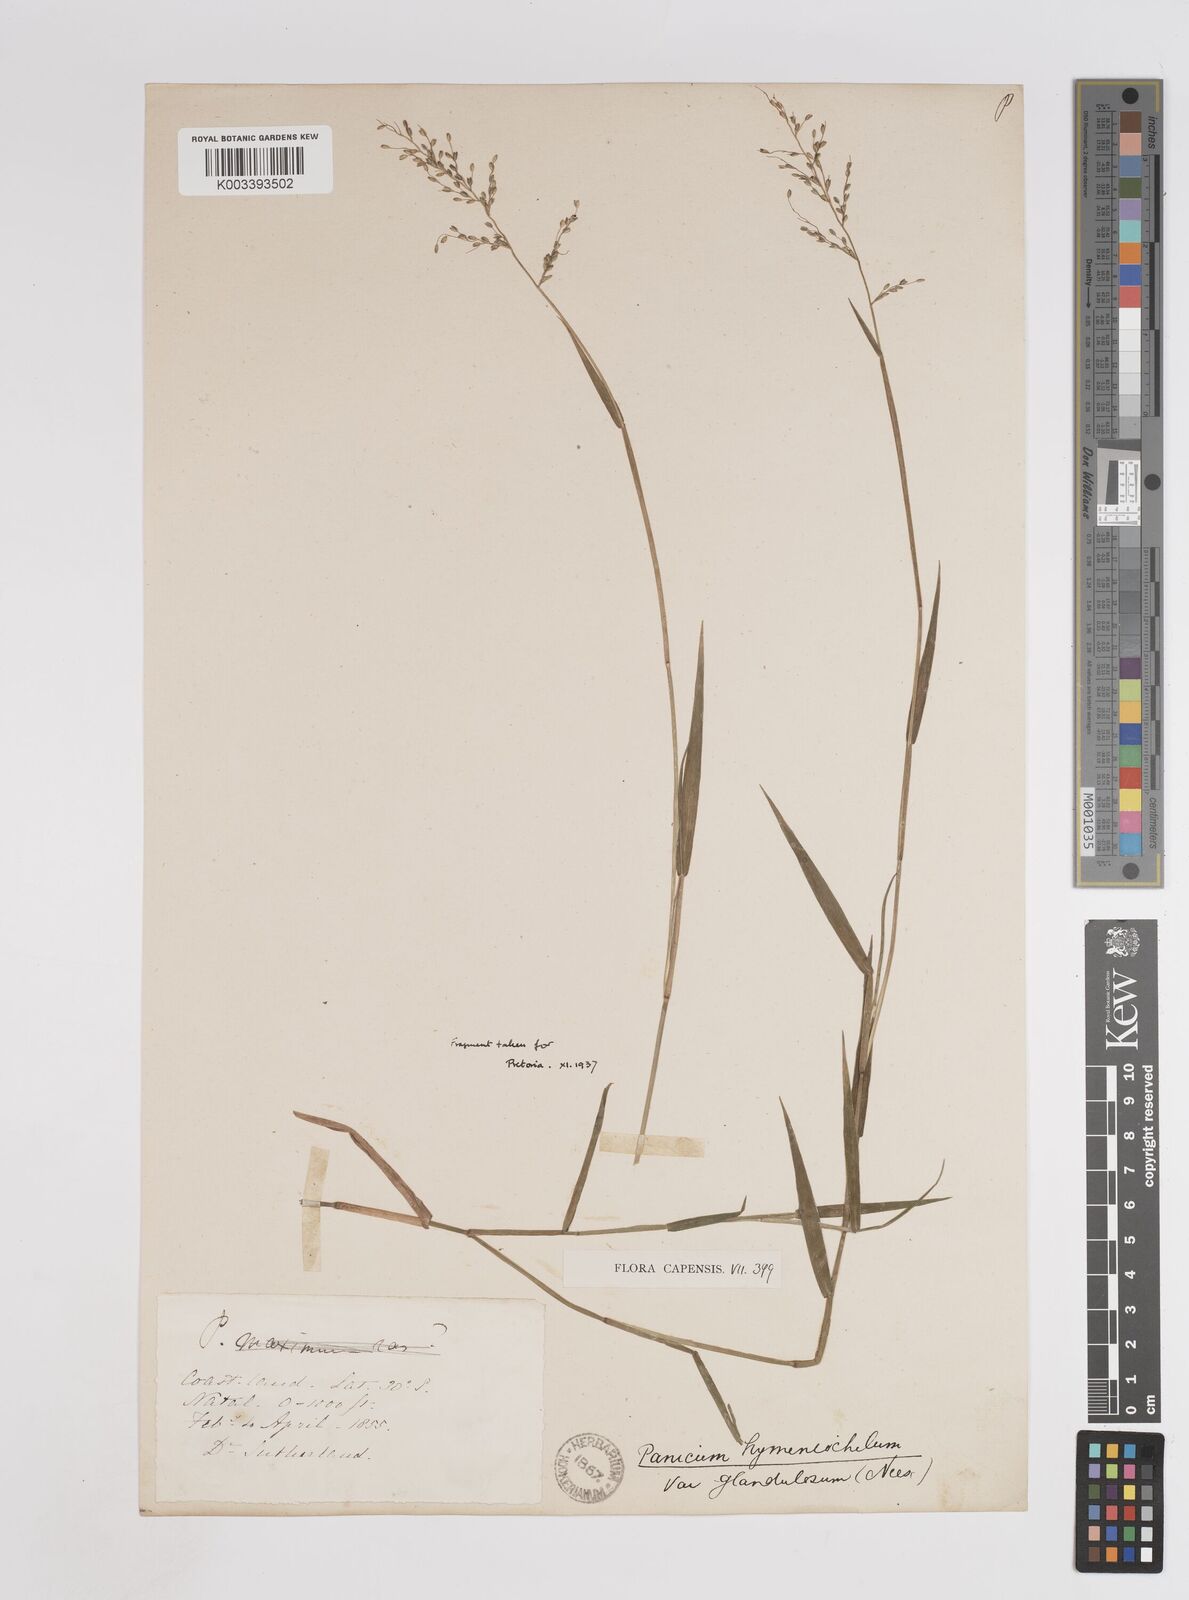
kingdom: Plantae
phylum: Tracheophyta
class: Liliopsida
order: Poales
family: Poaceae
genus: Adenochloa
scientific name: Adenochloa hymeniochila
